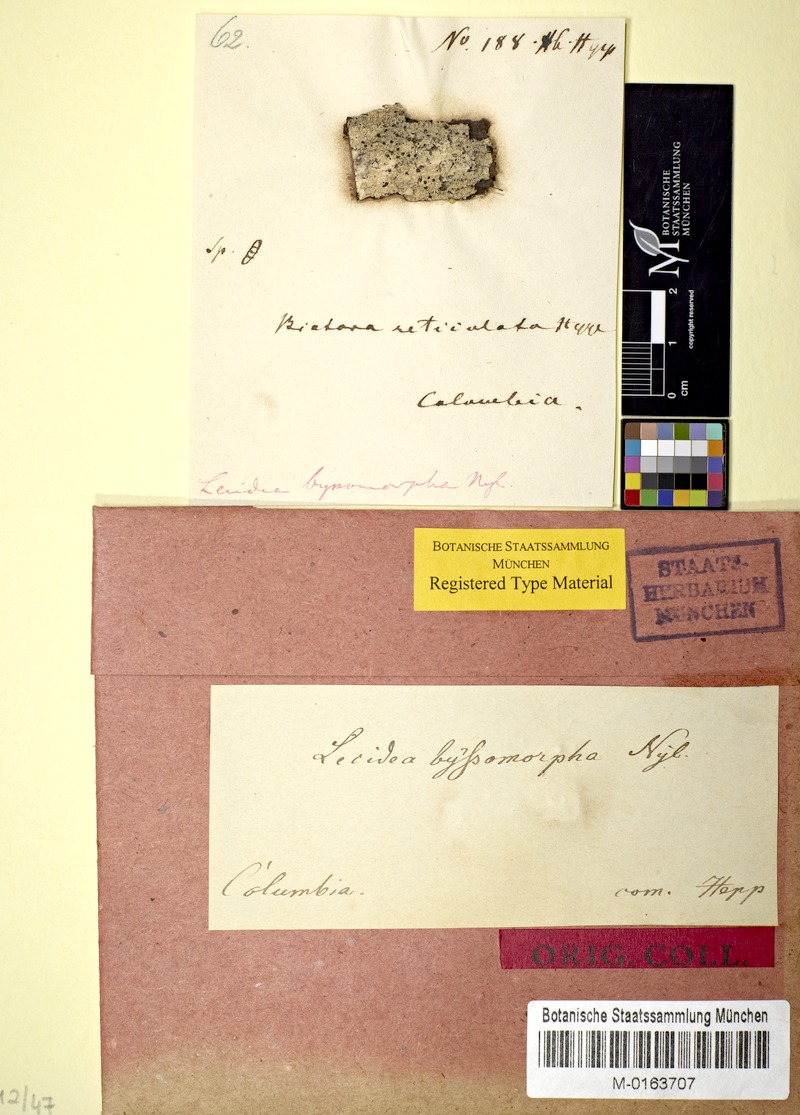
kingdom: Fungi
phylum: Ascomycota
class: Lecanoromycetes
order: Lecanorales
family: Ramalinaceae
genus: Auriculora
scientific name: Auriculora byssomorpha
